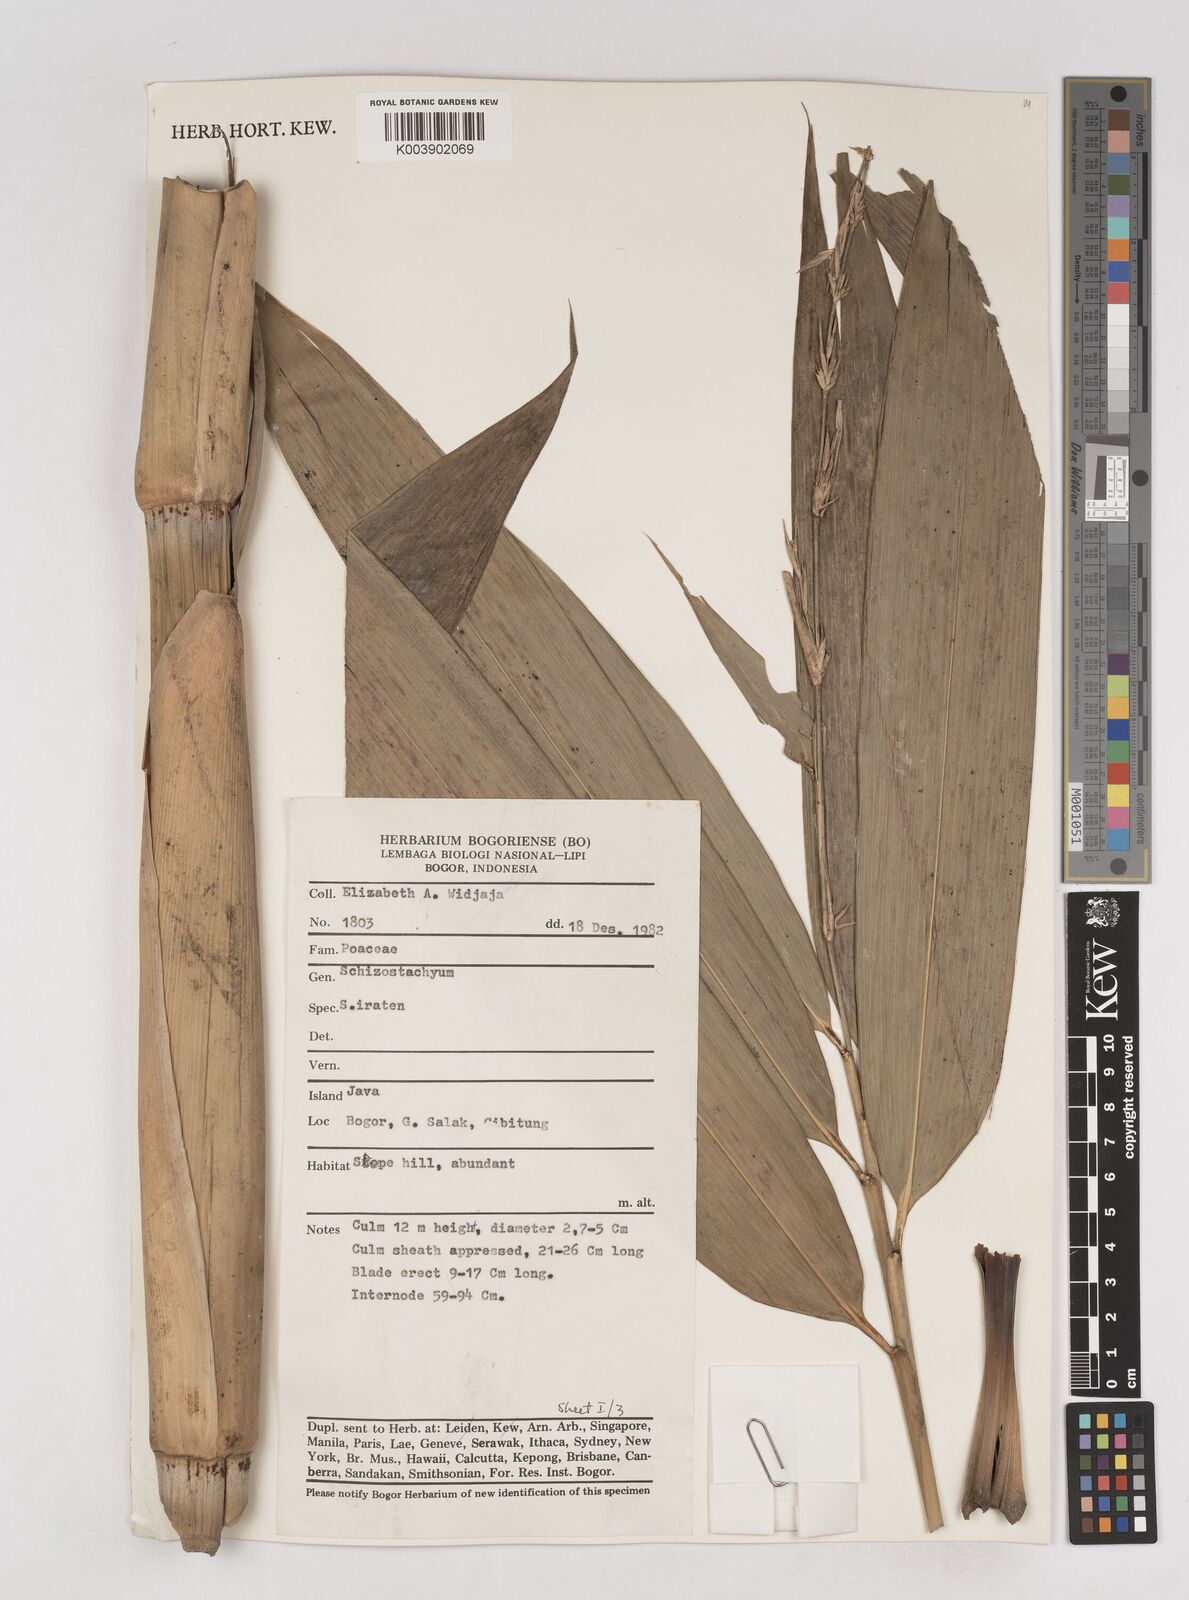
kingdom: Plantae
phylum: Tracheophyta
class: Liliopsida
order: Poales
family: Poaceae
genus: Schizostachyum
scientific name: Schizostachyum iraten
